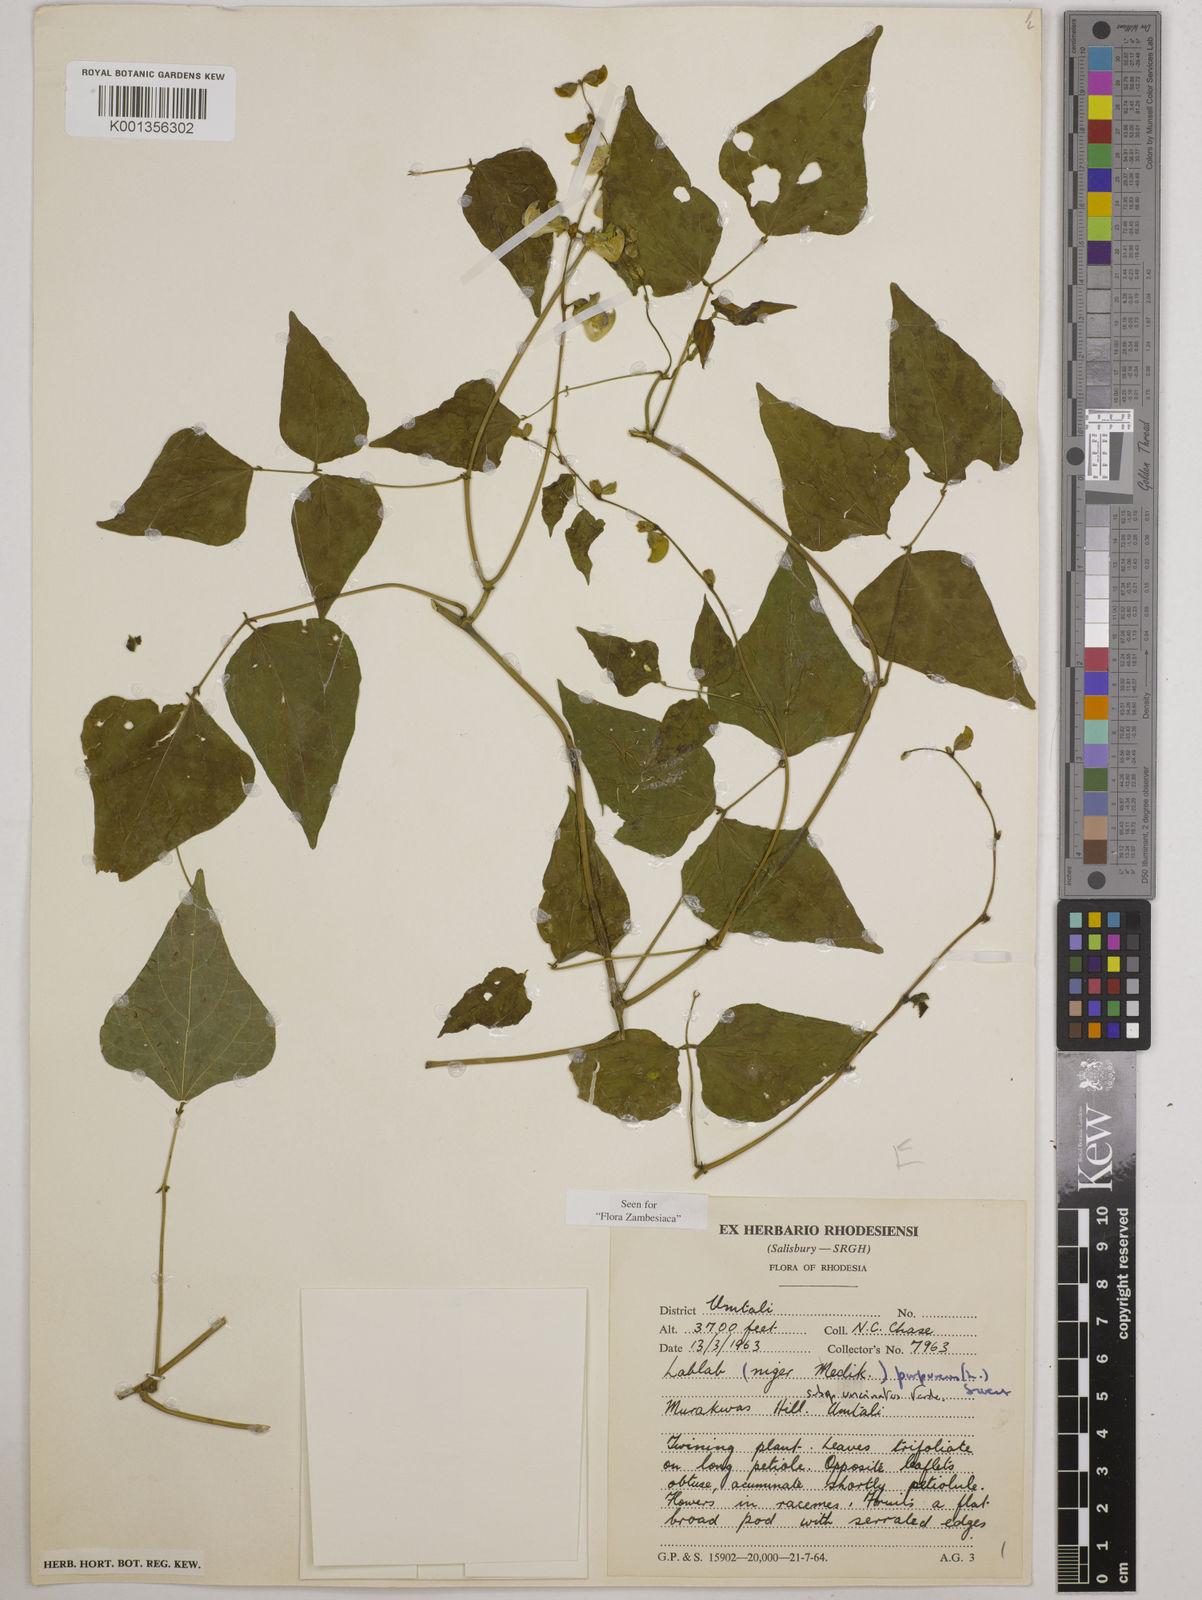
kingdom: Plantae
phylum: Tracheophyta
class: Magnoliopsida
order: Fabales
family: Fabaceae
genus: Lablab
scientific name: Lablab purpureus
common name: Lablab-bean
